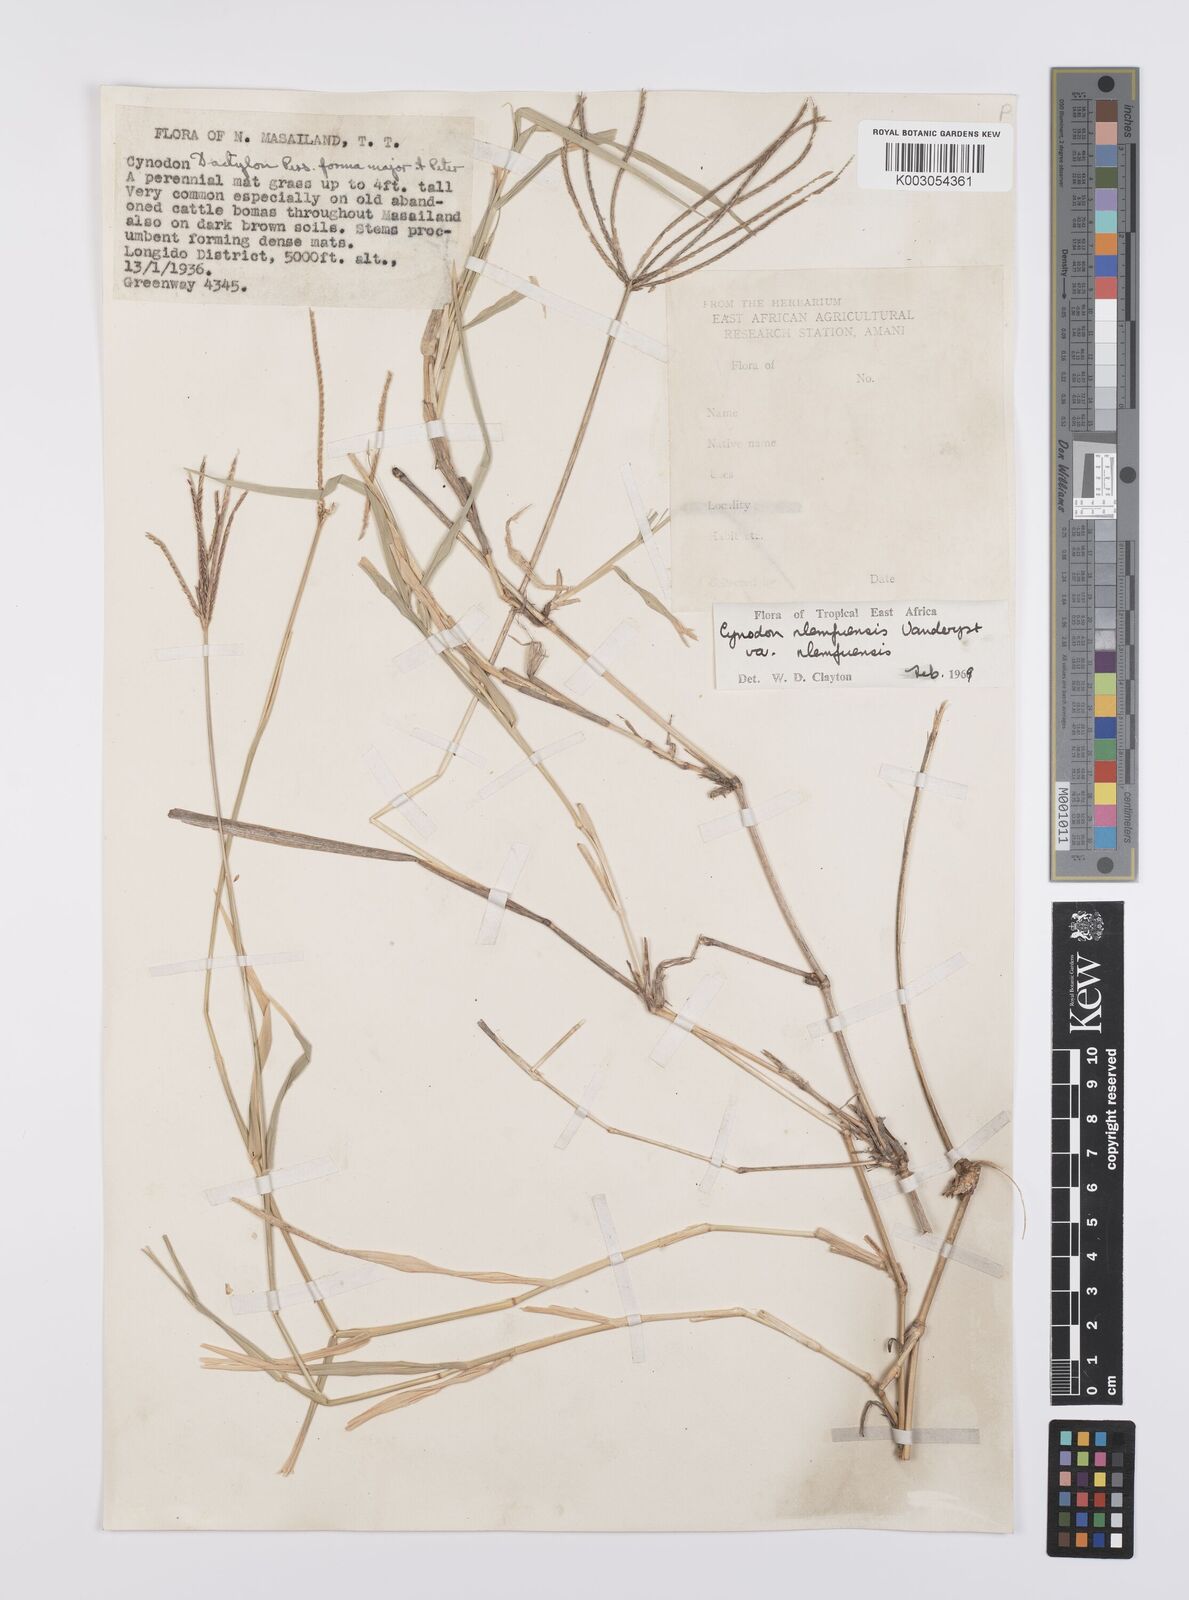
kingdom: Plantae
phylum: Tracheophyta
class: Liliopsida
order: Poales
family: Poaceae
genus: Cynodon
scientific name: Cynodon nlemfuensis
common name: African bermudagrass
